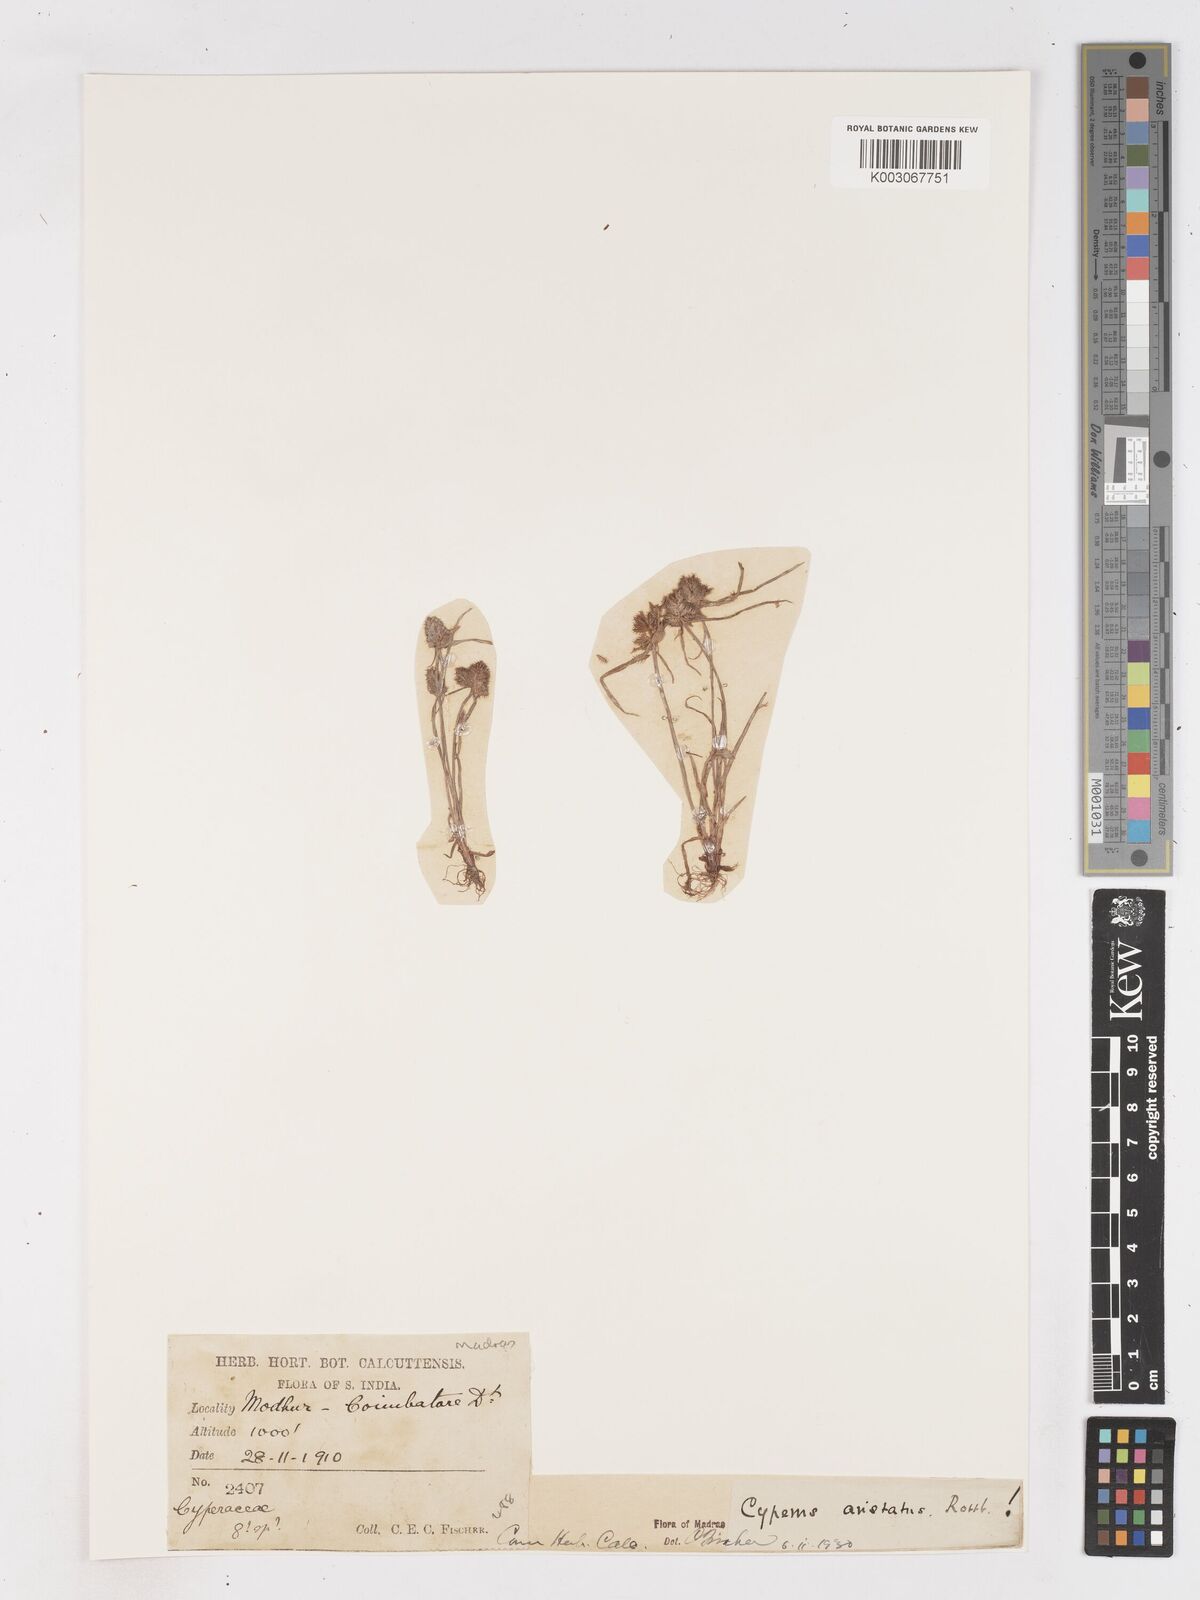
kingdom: Plantae
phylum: Tracheophyta
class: Liliopsida
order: Poales
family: Cyperaceae
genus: Cyperus
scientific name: Cyperus squarrosus
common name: Awned cyperus
